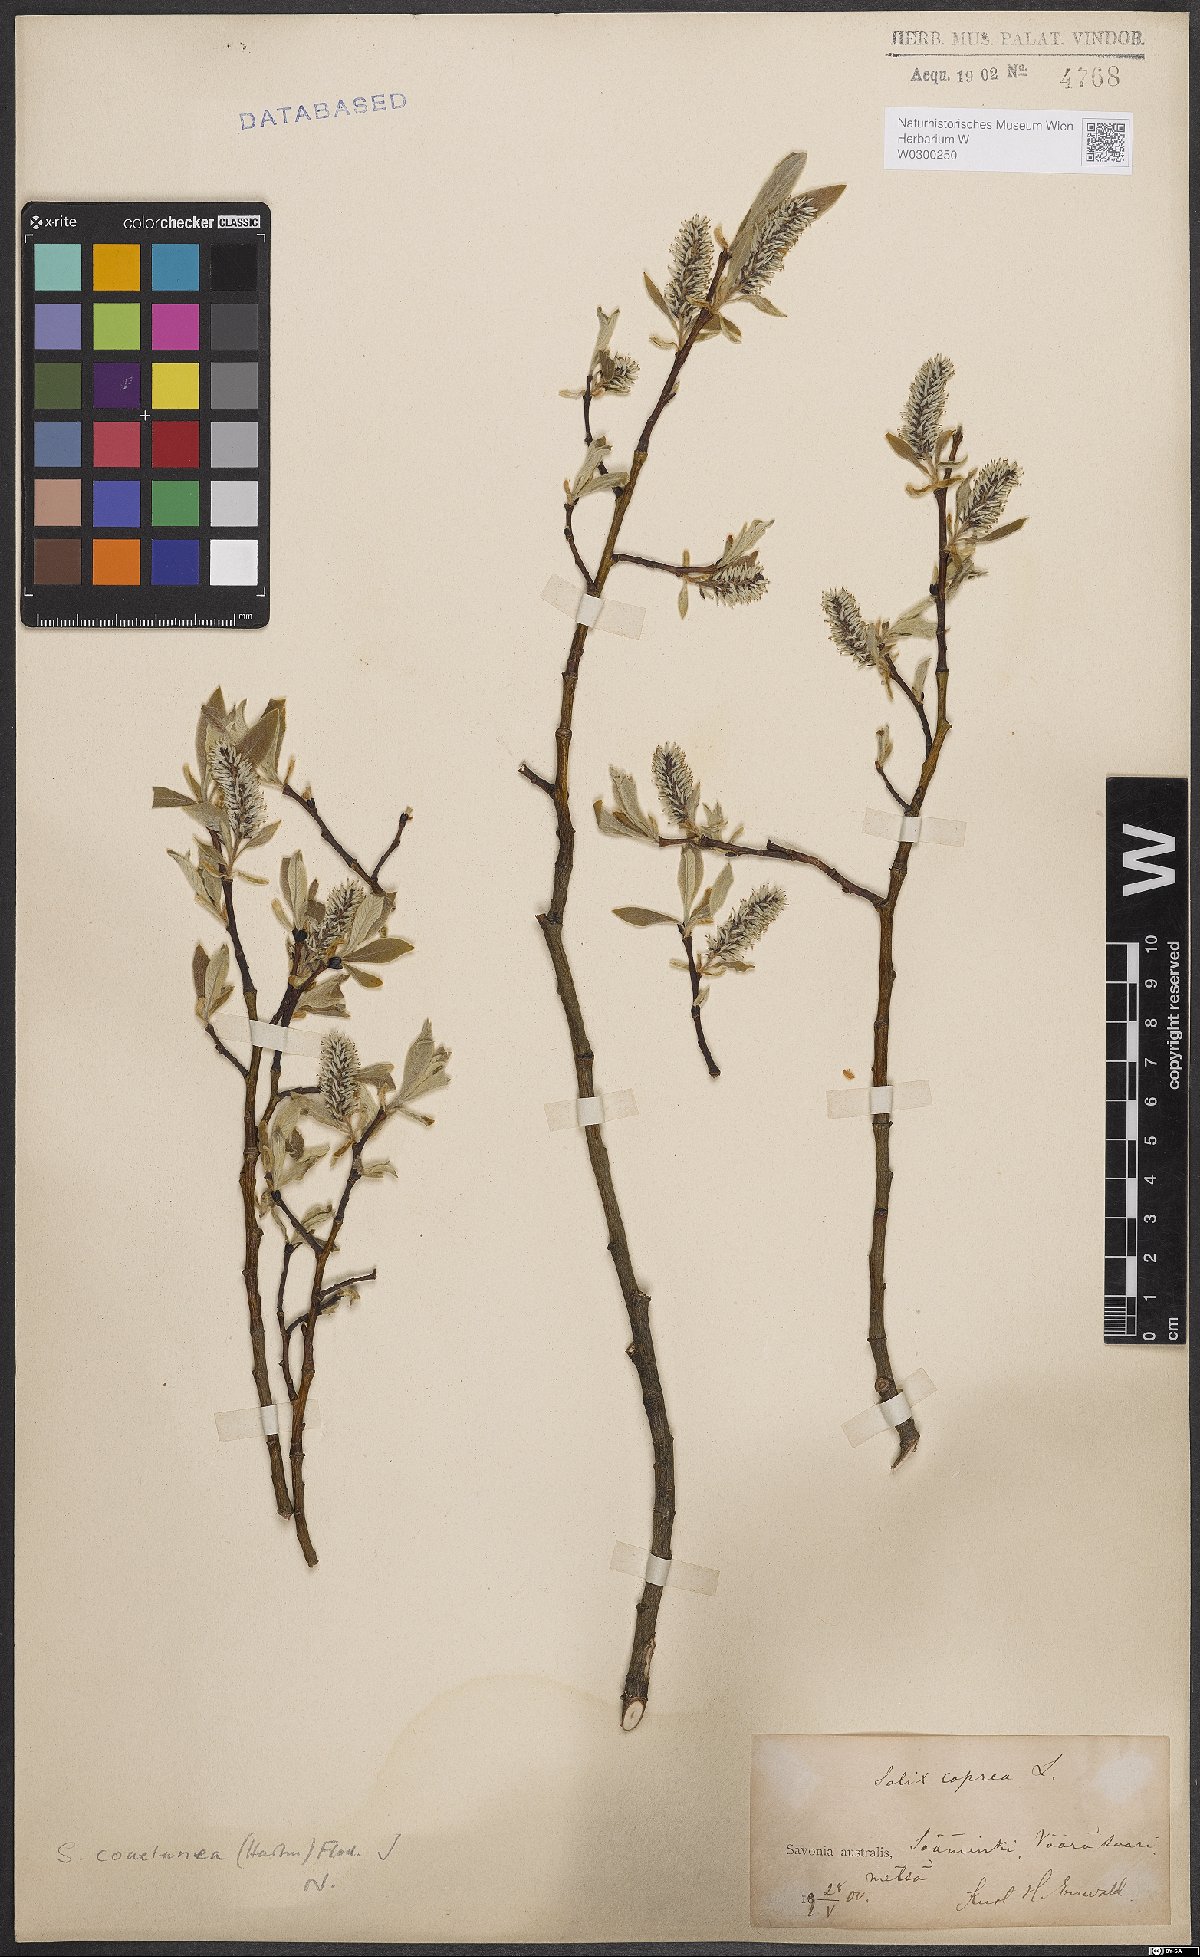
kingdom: Plantae
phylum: Tracheophyta
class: Magnoliopsida
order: Malpighiales
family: Salicaceae
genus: Salix
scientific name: Salix caprea
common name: Goat willow
